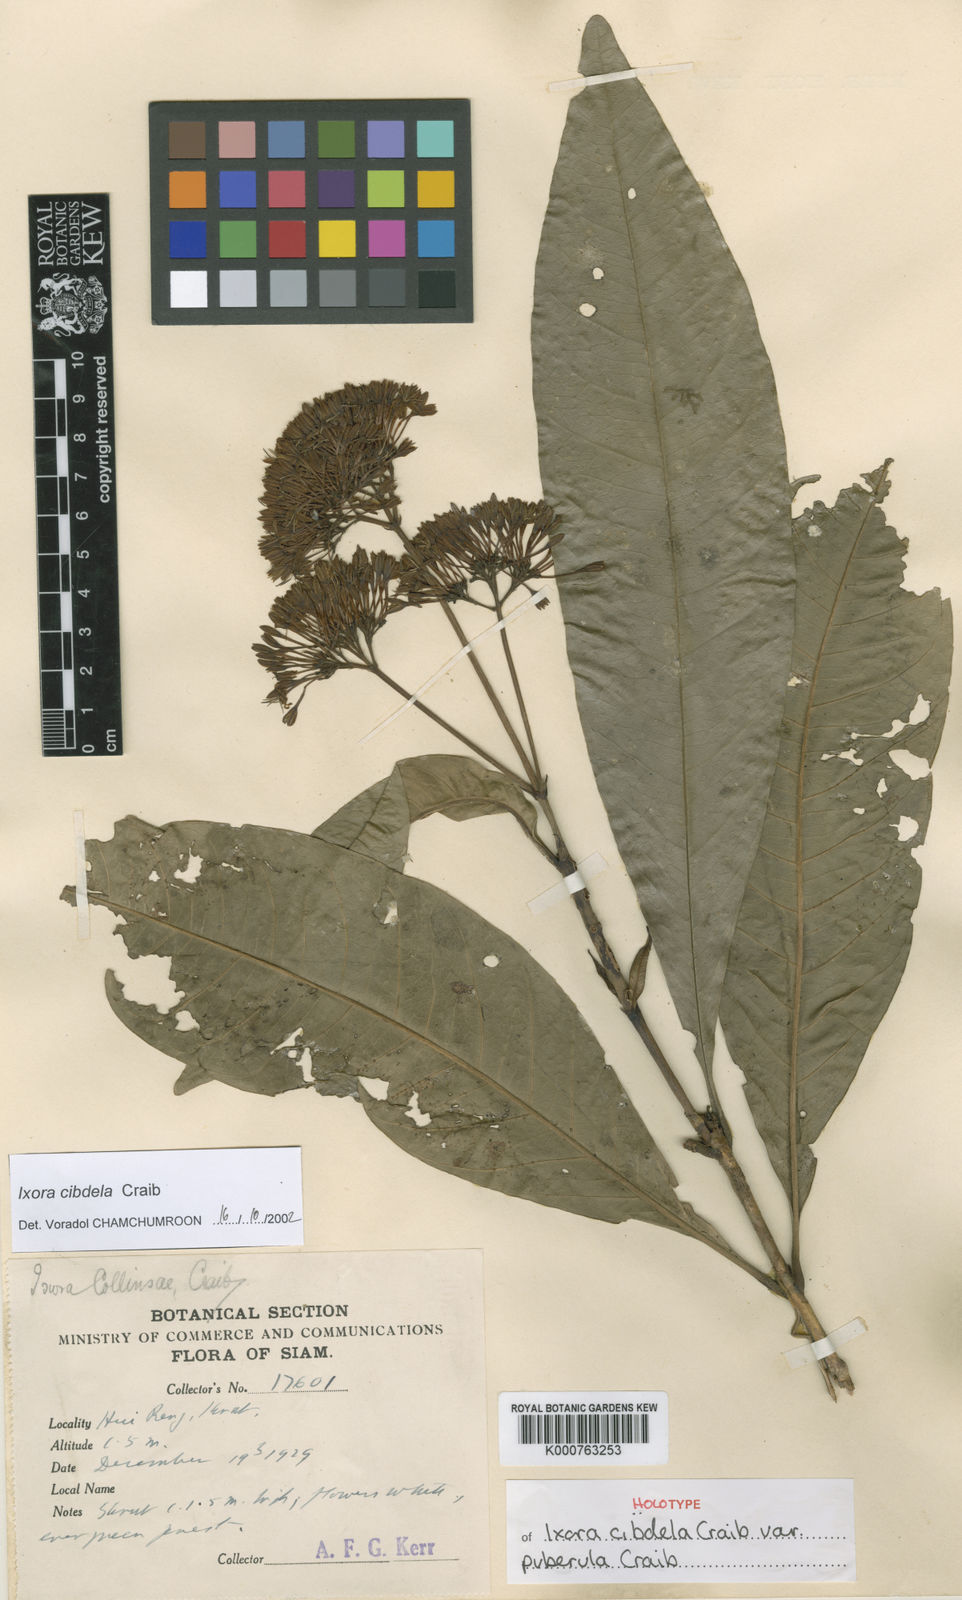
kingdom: Plantae
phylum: Tracheophyta
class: Magnoliopsida
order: Gentianales
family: Rubiaceae
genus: Ixora
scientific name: Ixora cibdela
